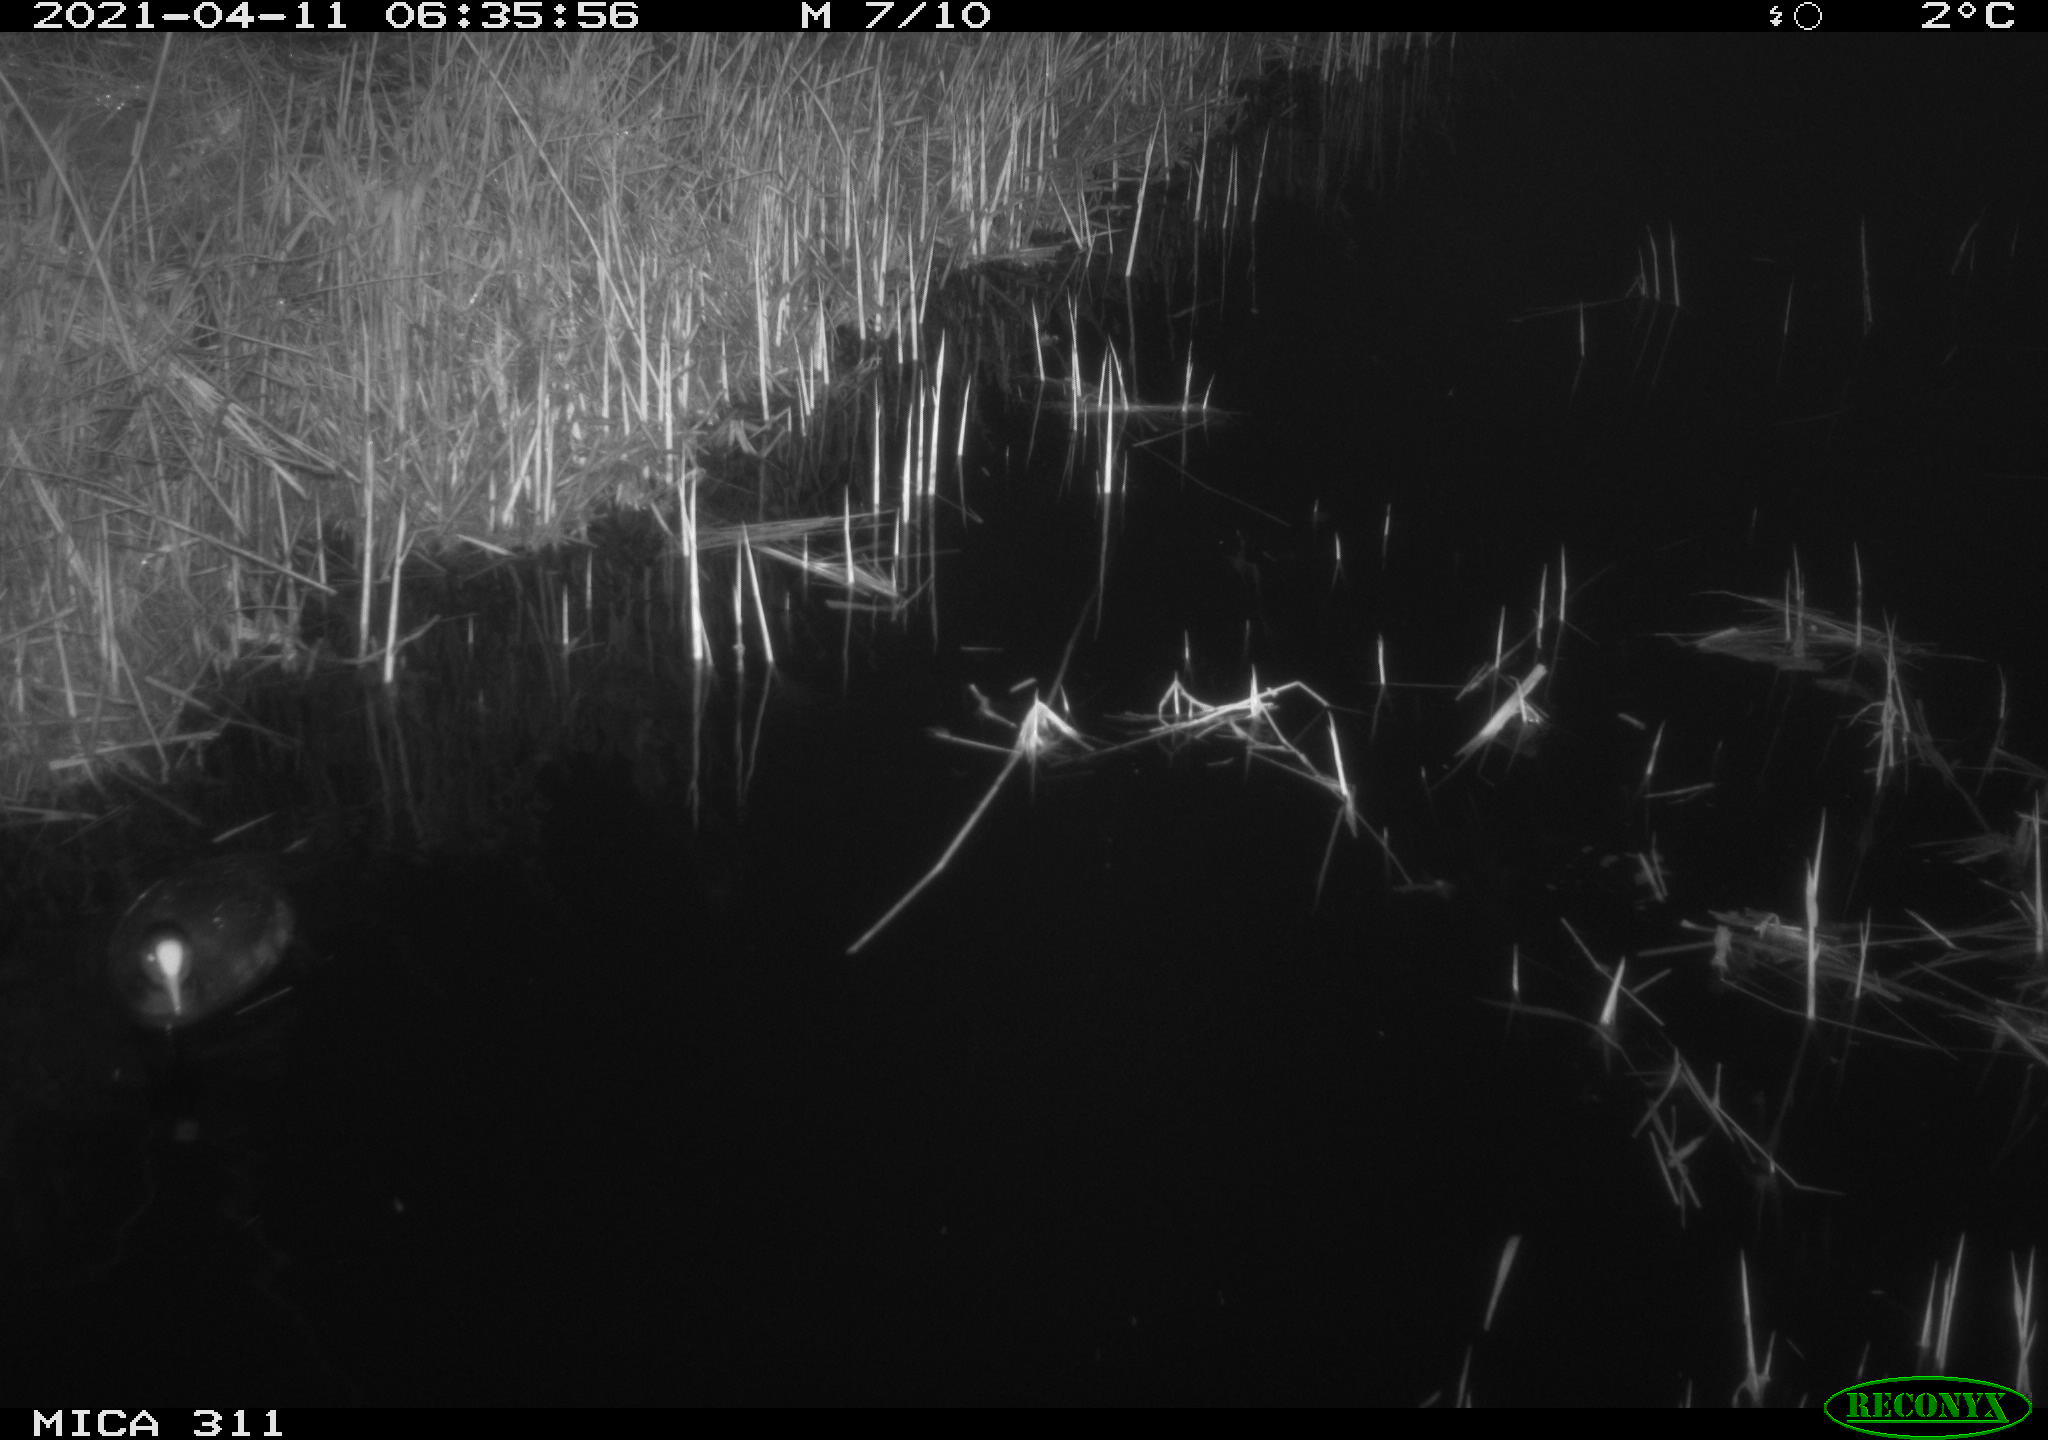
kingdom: Animalia
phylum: Chordata
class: Aves
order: Gruiformes
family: Rallidae
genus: Fulica
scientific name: Fulica atra
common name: Eurasian coot
